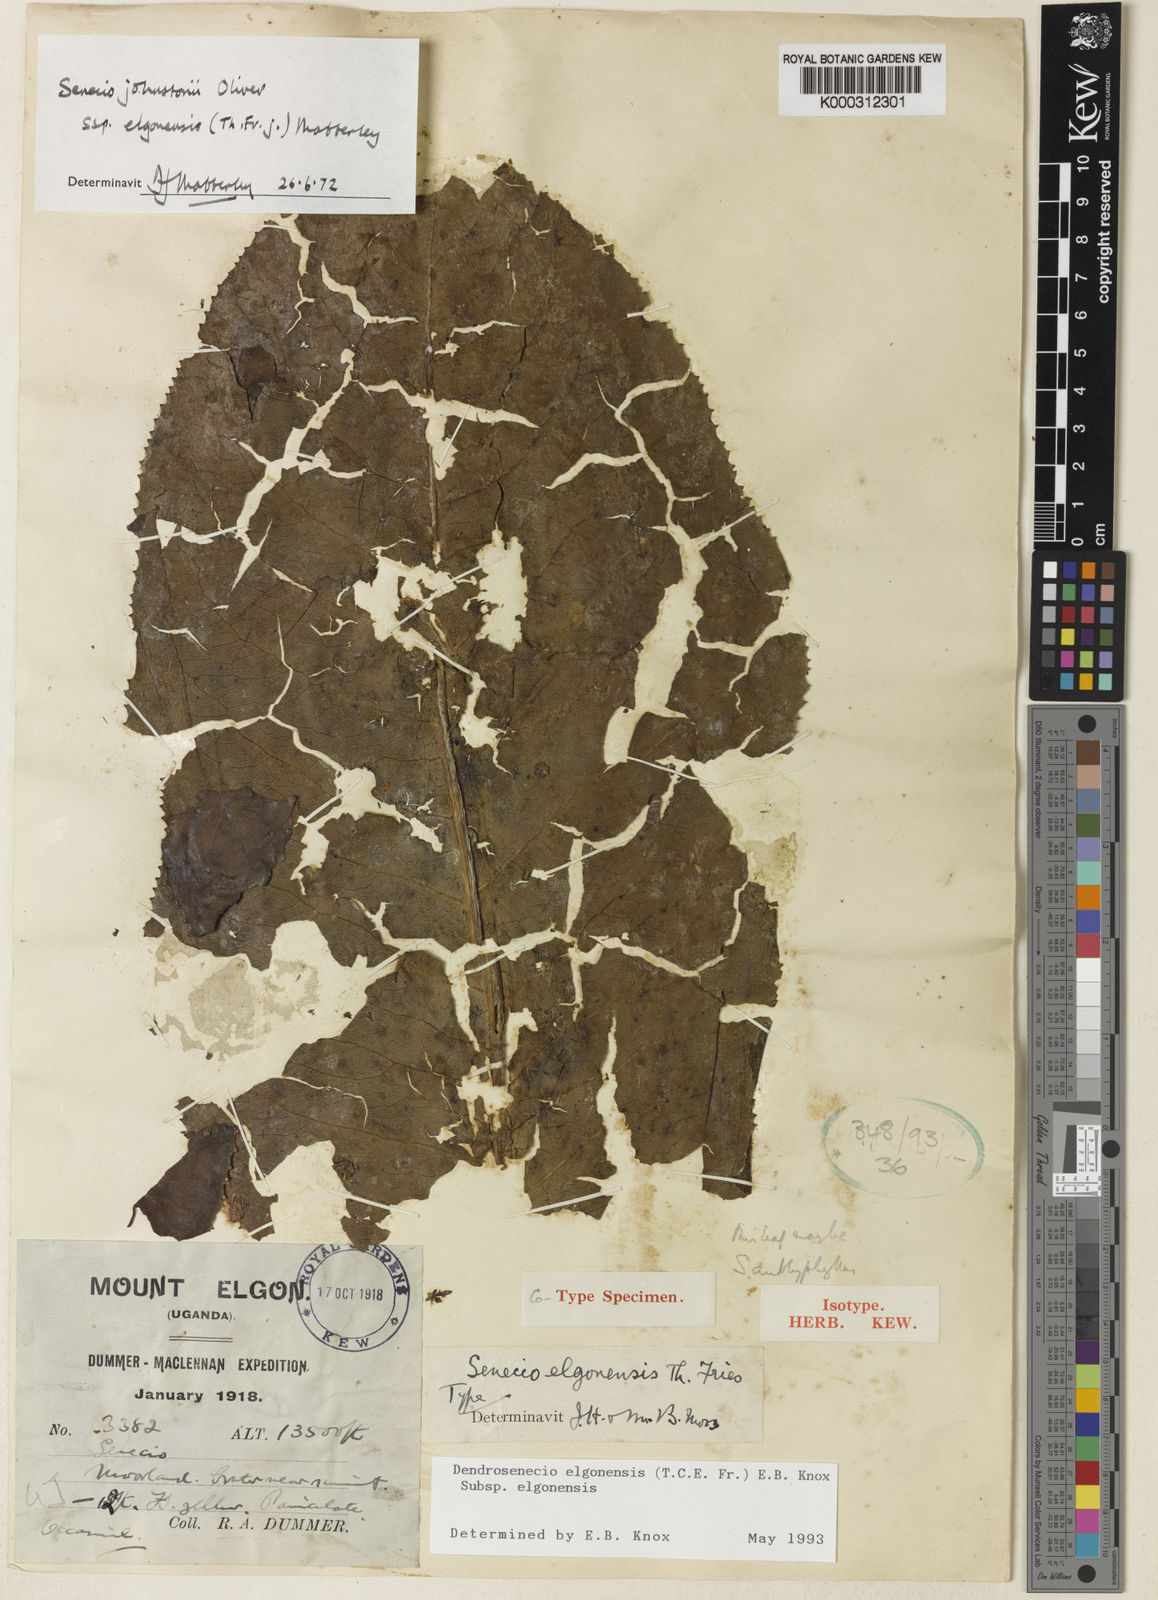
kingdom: Plantae
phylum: Tracheophyta
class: Magnoliopsida
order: Asterales
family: Asteraceae
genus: Dendrosenecio
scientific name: Dendrosenecio elgonensis
